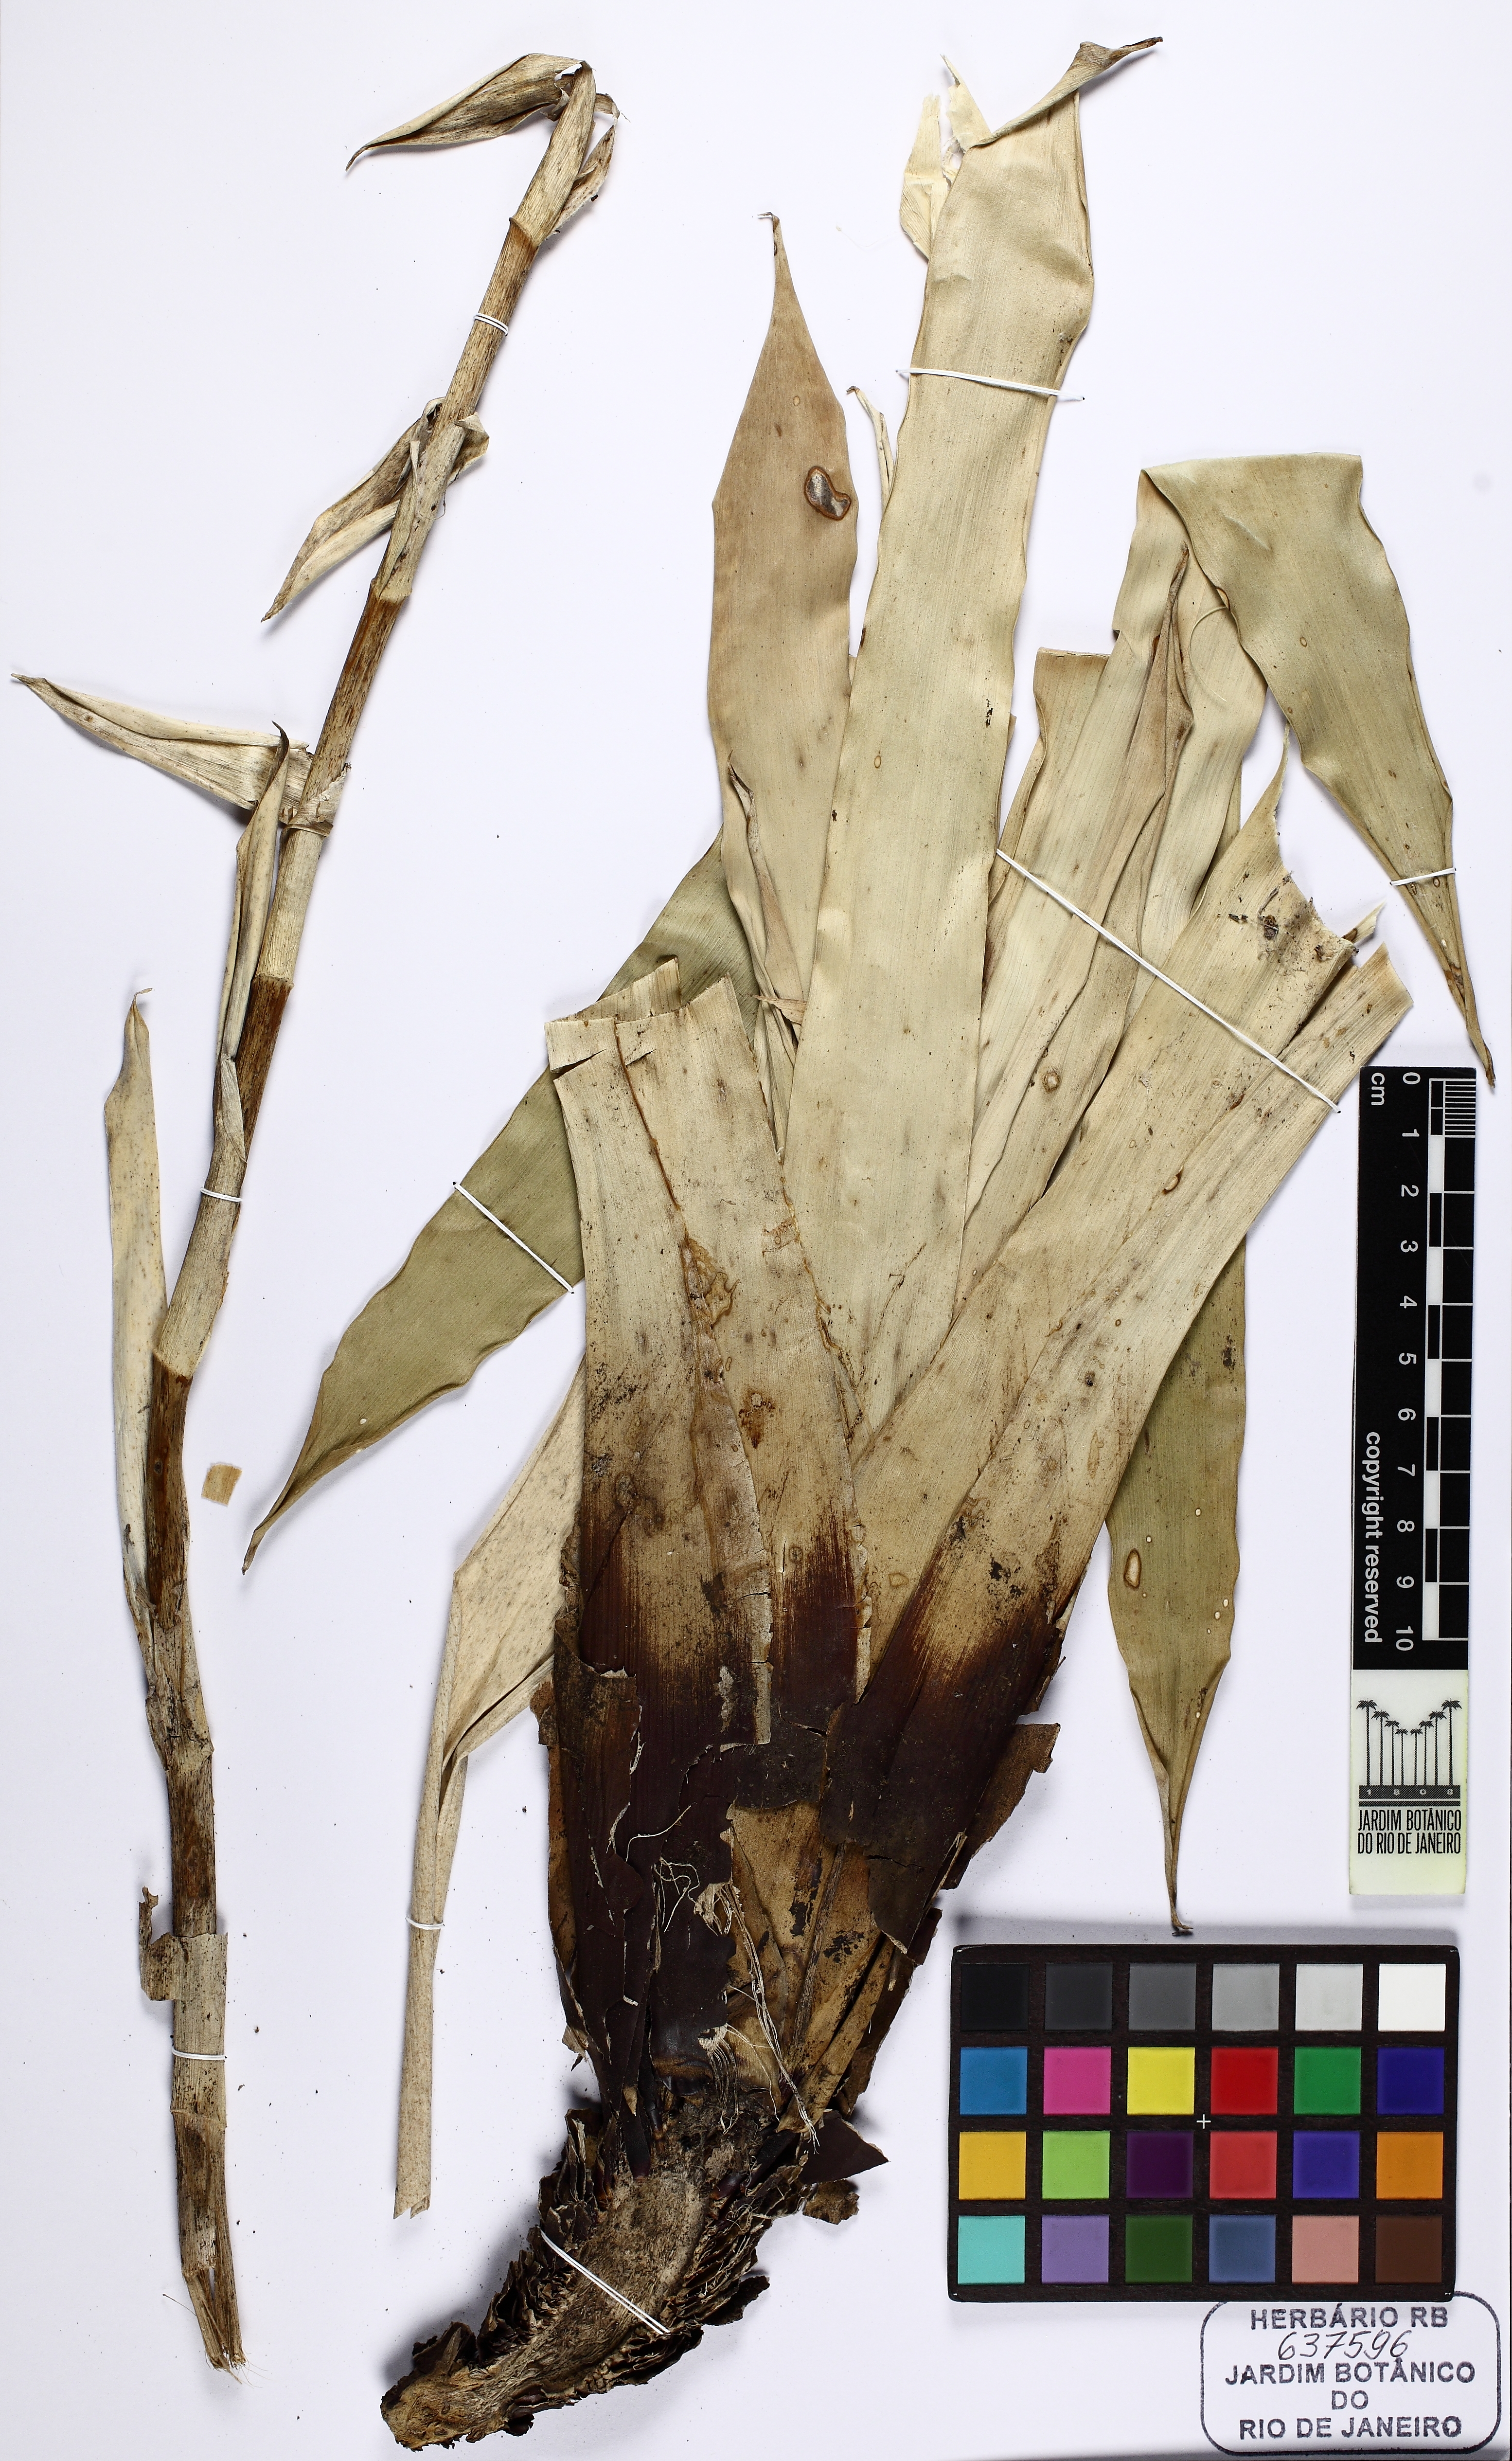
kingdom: Plantae
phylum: Tracheophyta
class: Liliopsida
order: Poales
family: Bromeliaceae
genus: Vriesea
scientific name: Vriesea segadas-viannae
